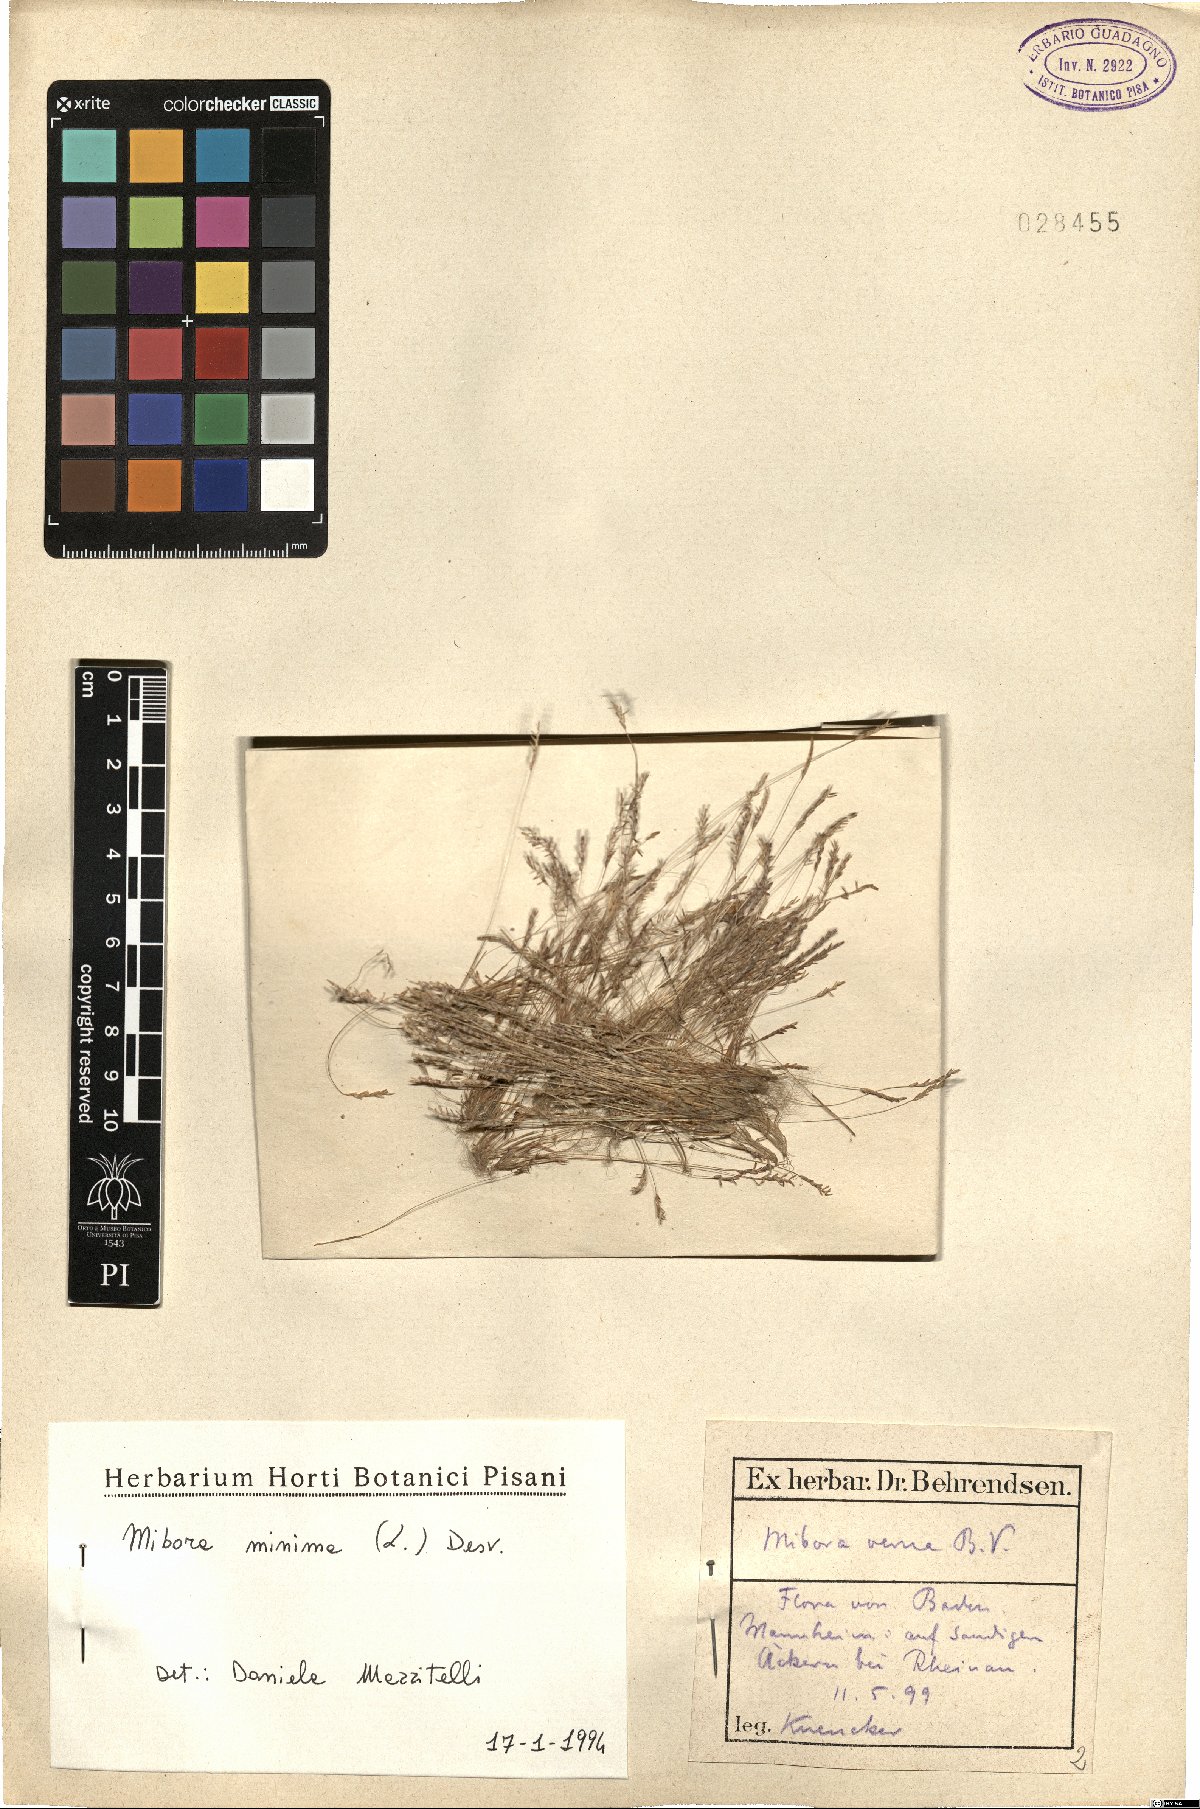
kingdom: Plantae
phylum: Tracheophyta
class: Liliopsida
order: Poales
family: Poaceae
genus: Mibora
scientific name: Mibora minima
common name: Early sand-grass
